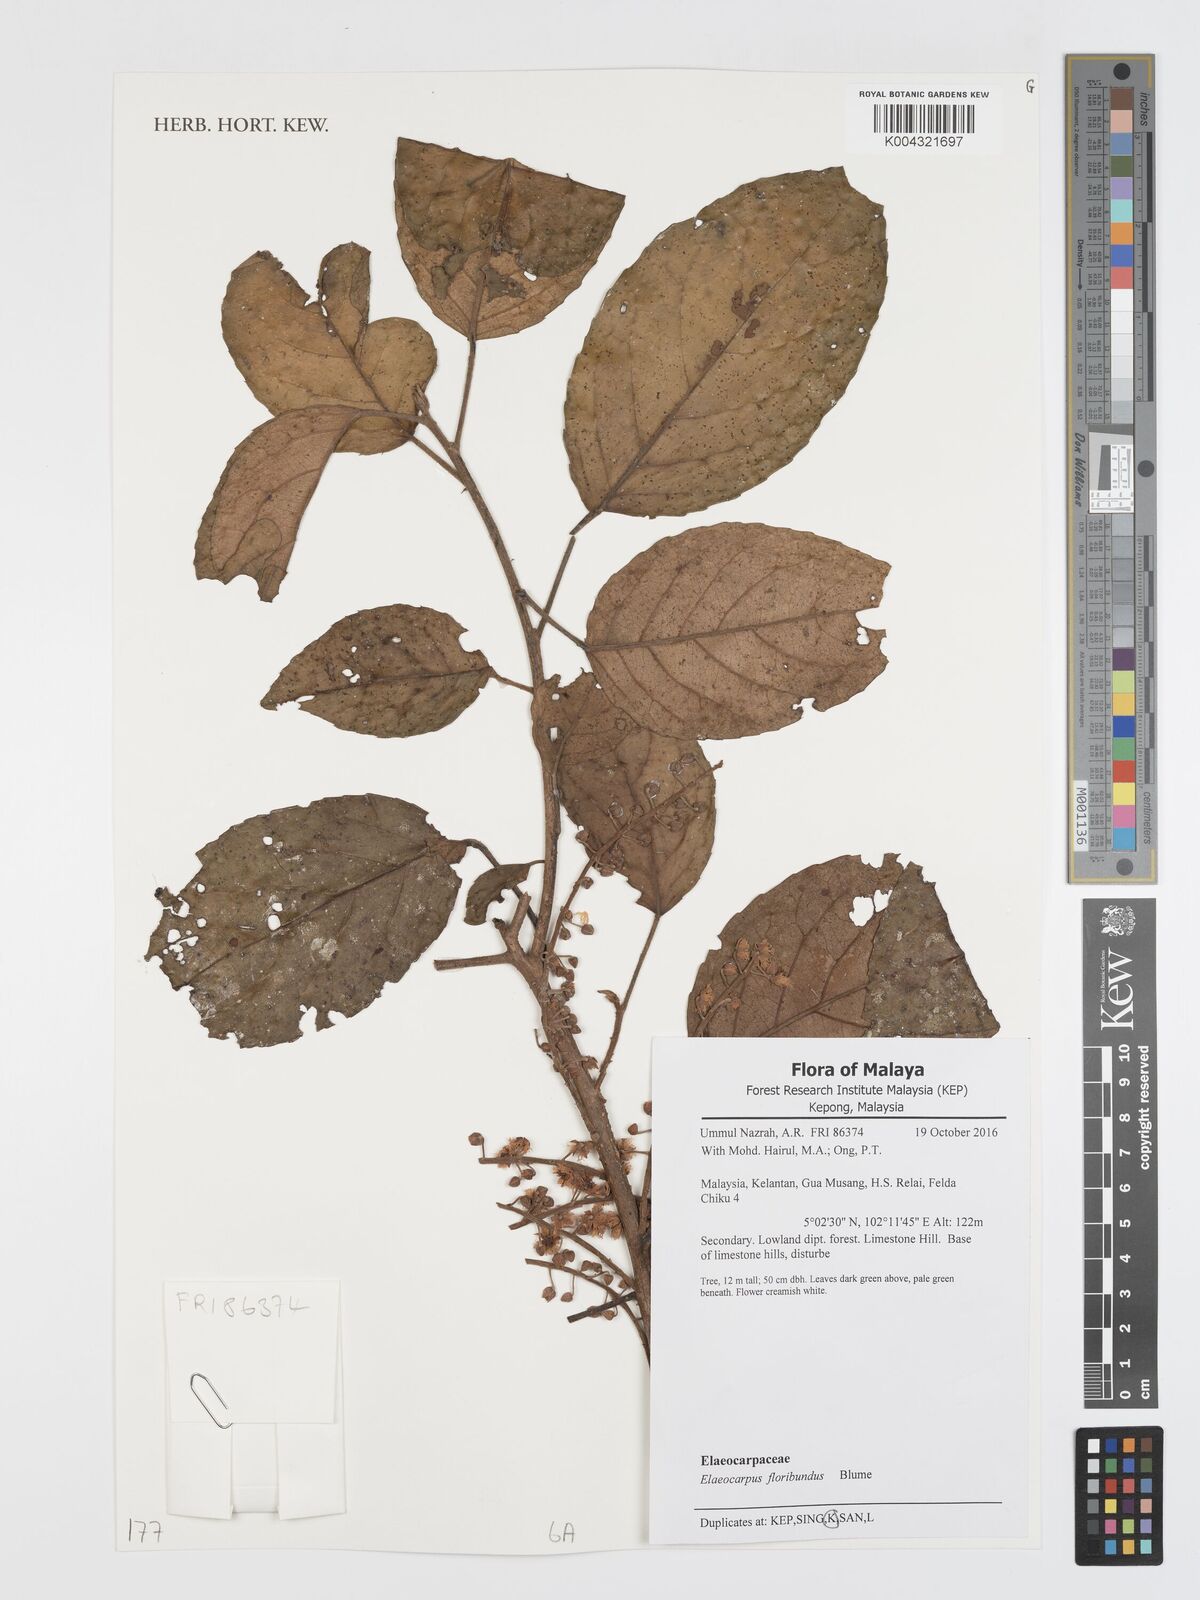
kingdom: Plantae
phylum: Tracheophyta
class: Magnoliopsida
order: Oxalidales
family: Elaeocarpaceae
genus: Elaeocarpus
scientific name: Elaeocarpus floribundus
